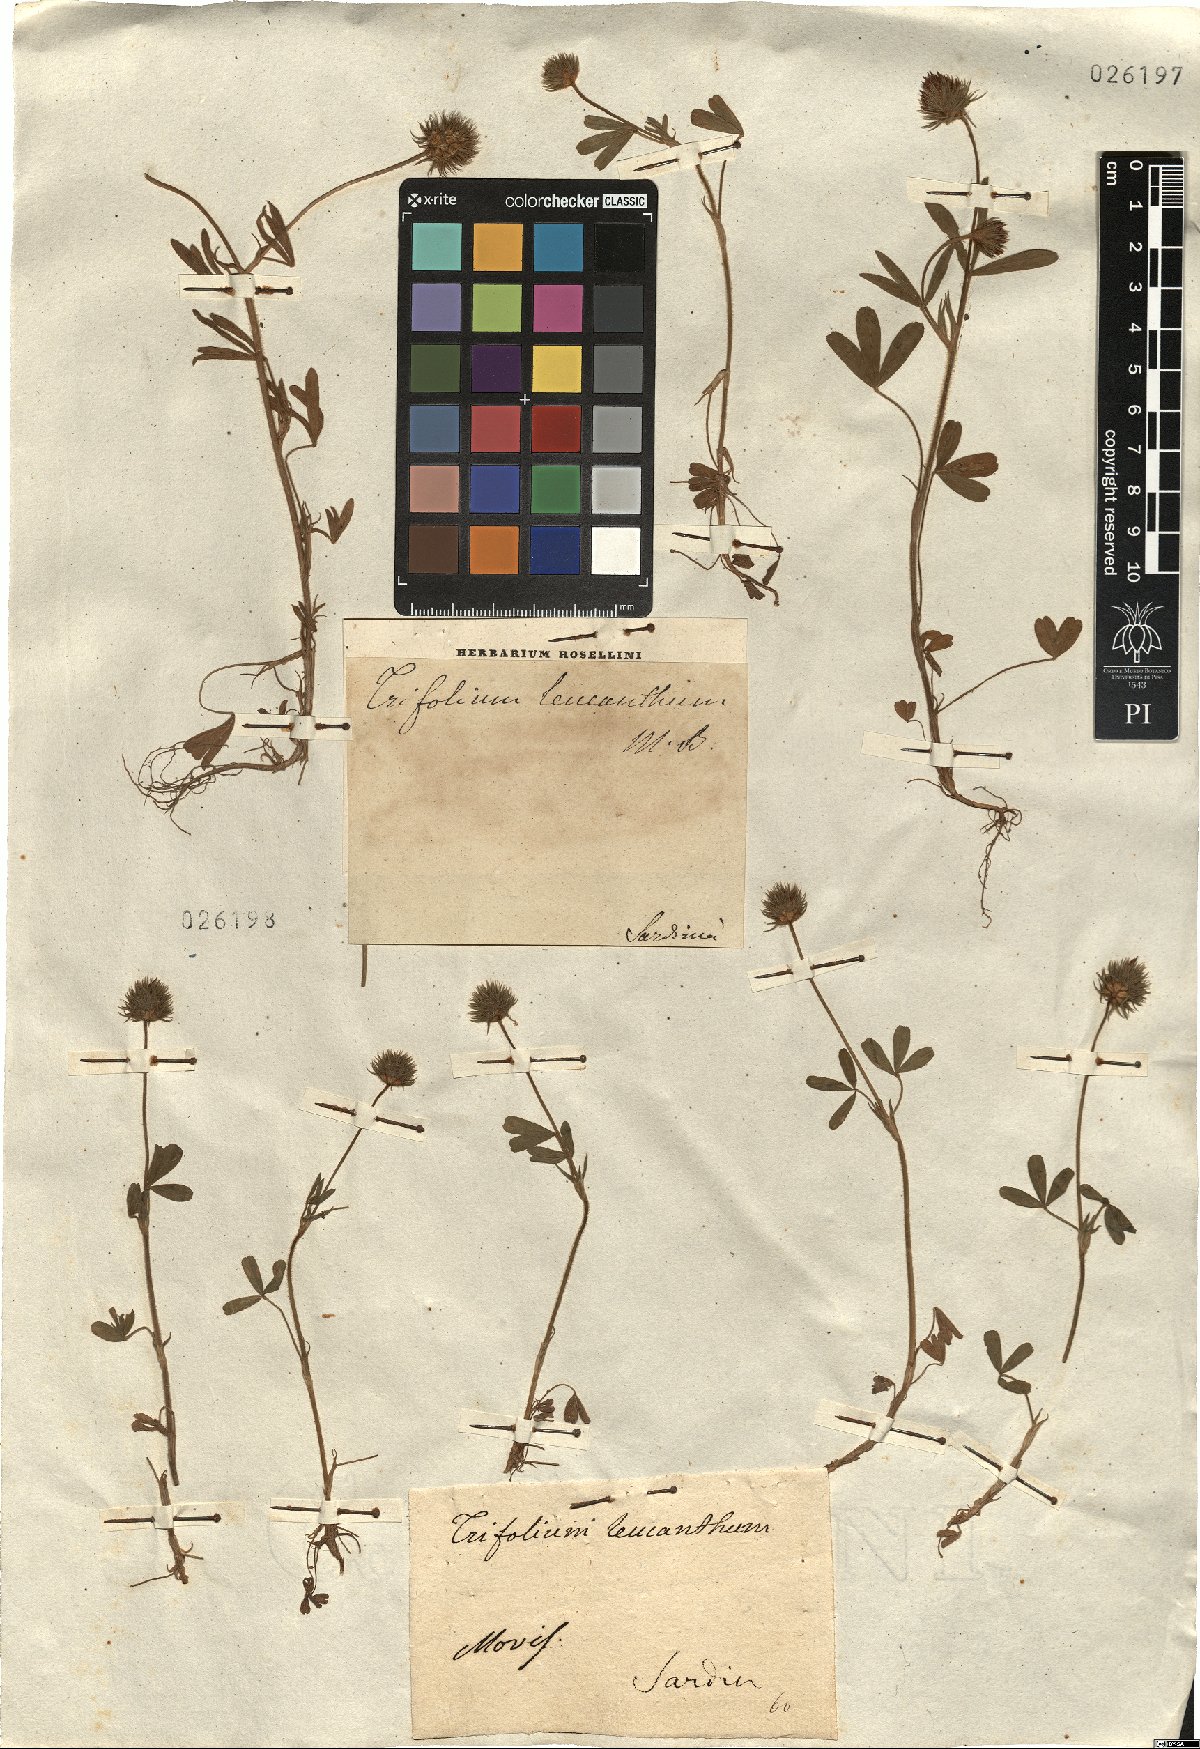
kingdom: Plantae
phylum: Tracheophyta
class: Magnoliopsida
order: Fabales
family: Fabaceae
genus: Trifolium
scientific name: Trifolium leucanthum
